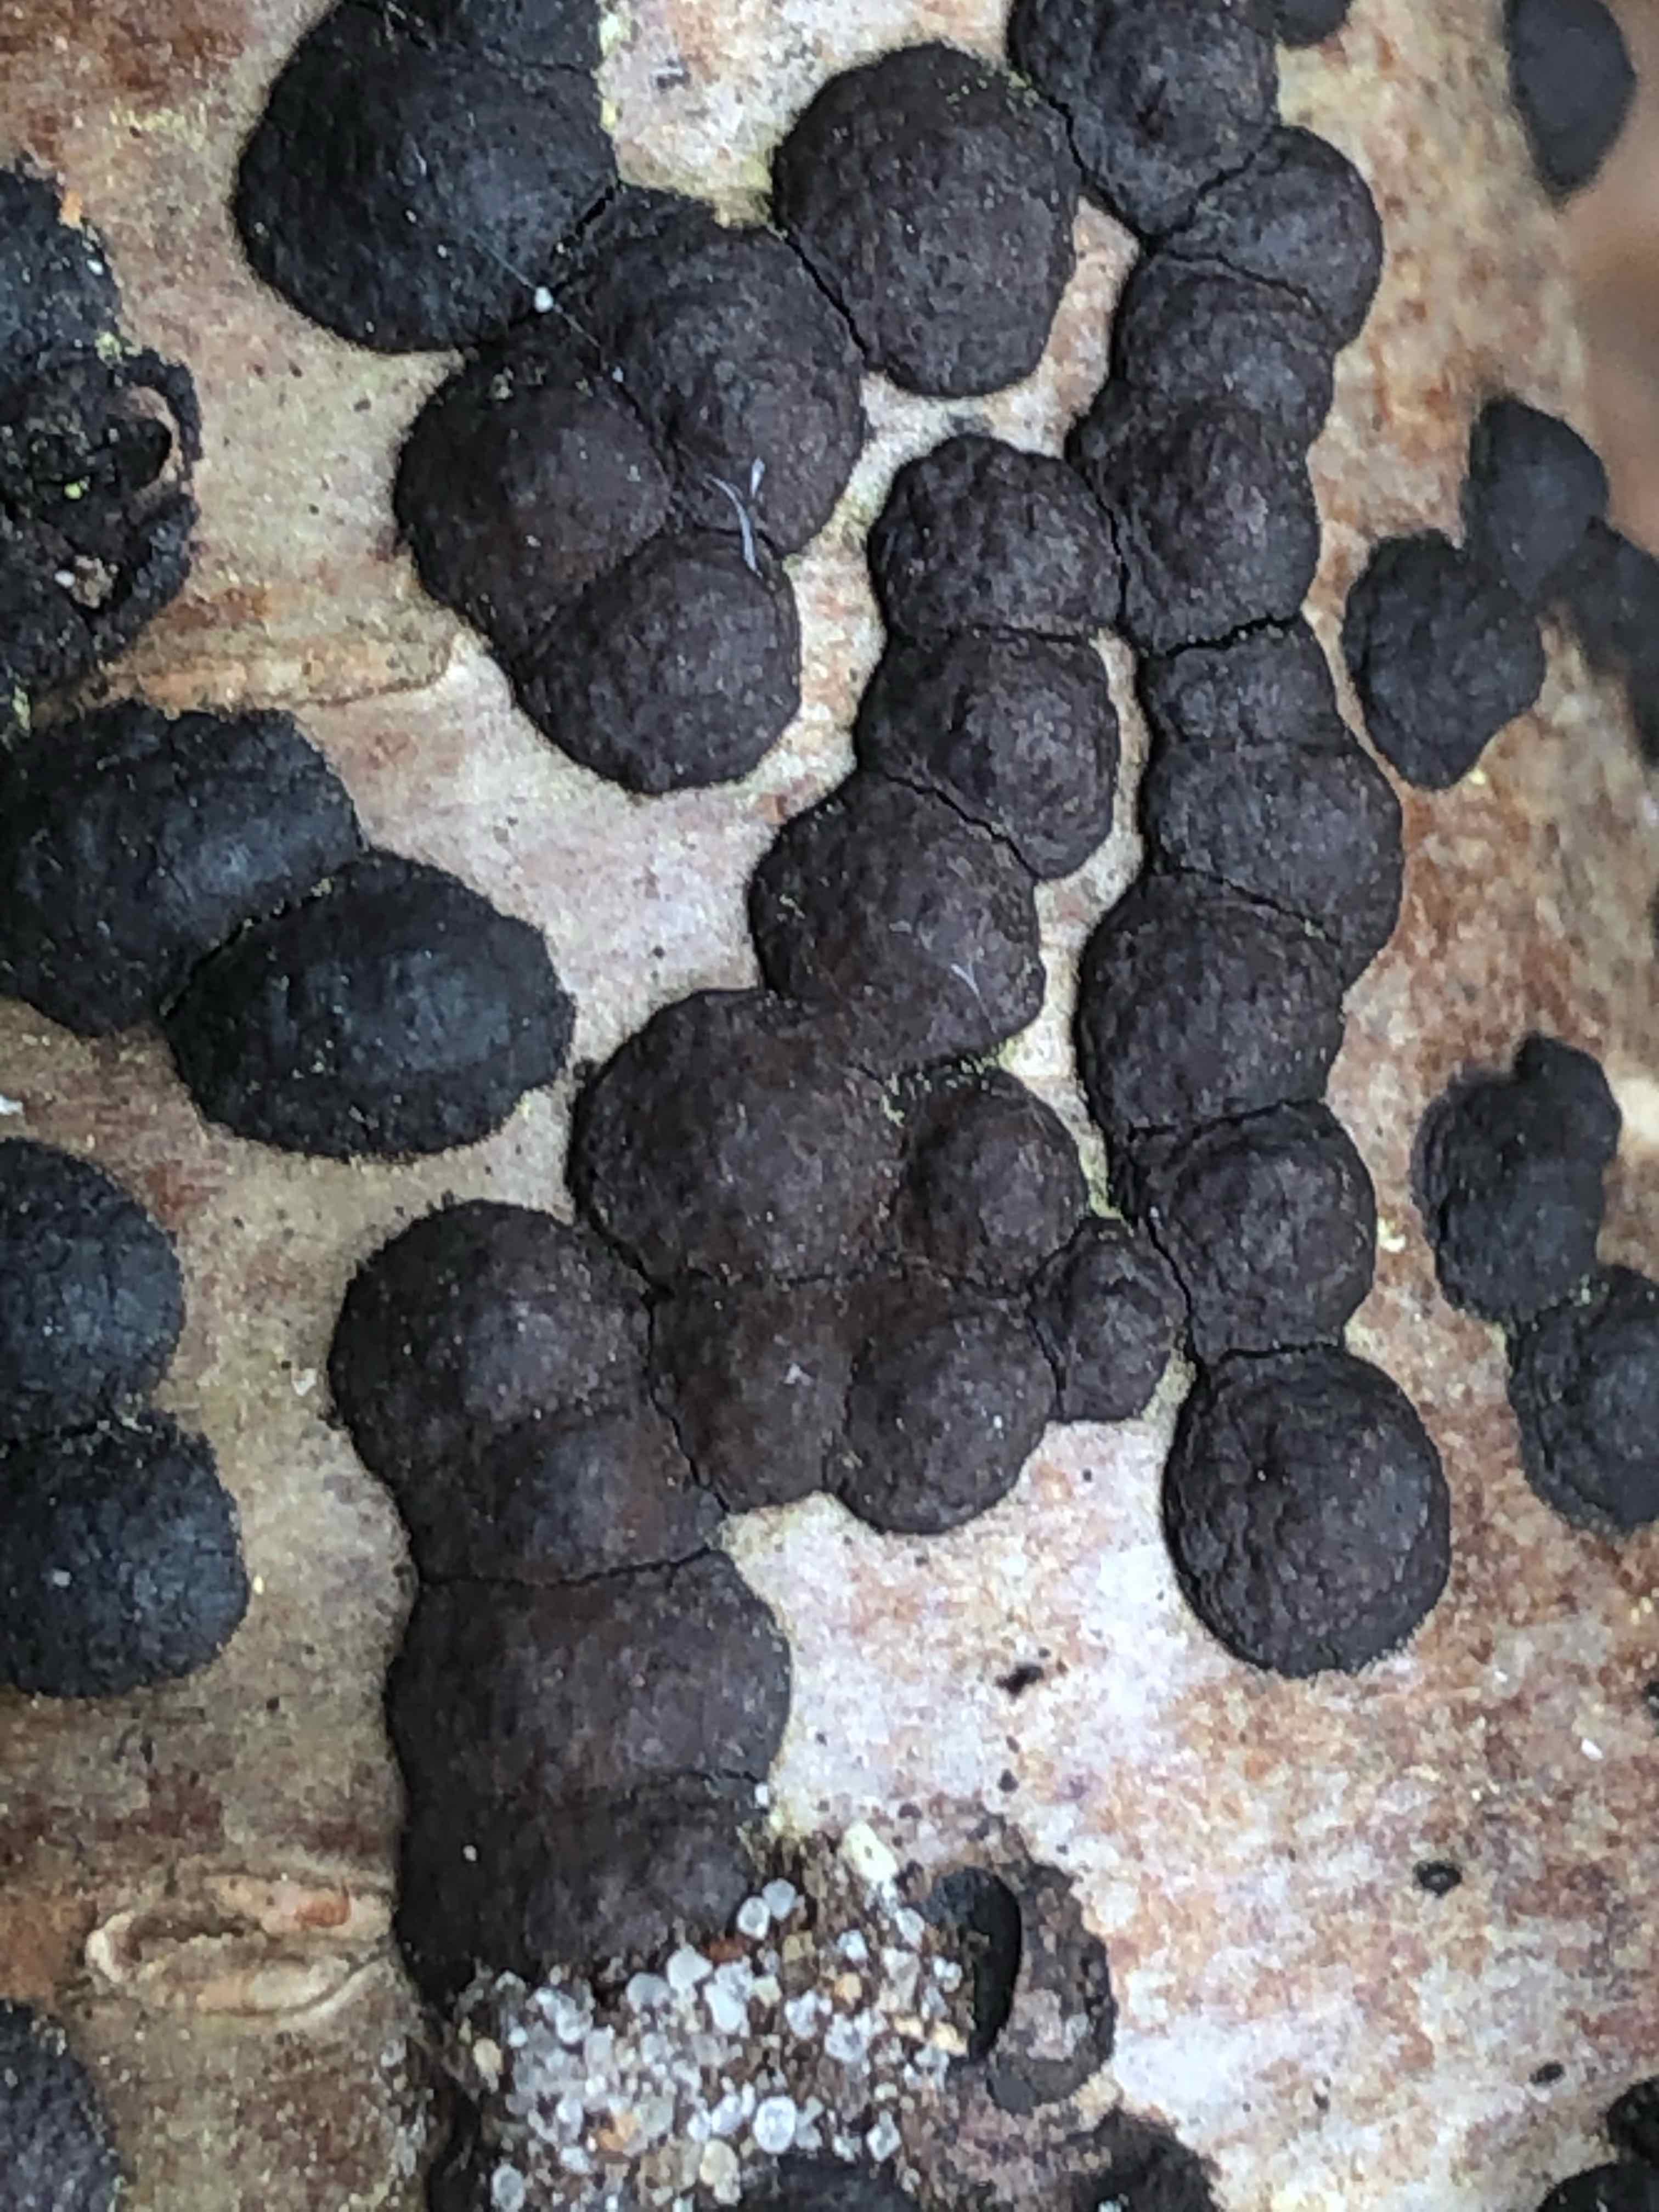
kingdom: Fungi
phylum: Ascomycota
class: Sordariomycetes
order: Xylariales
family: Hypoxylaceae
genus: Hypoxylon
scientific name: Hypoxylon fuscum
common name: kegleformet kulbær
